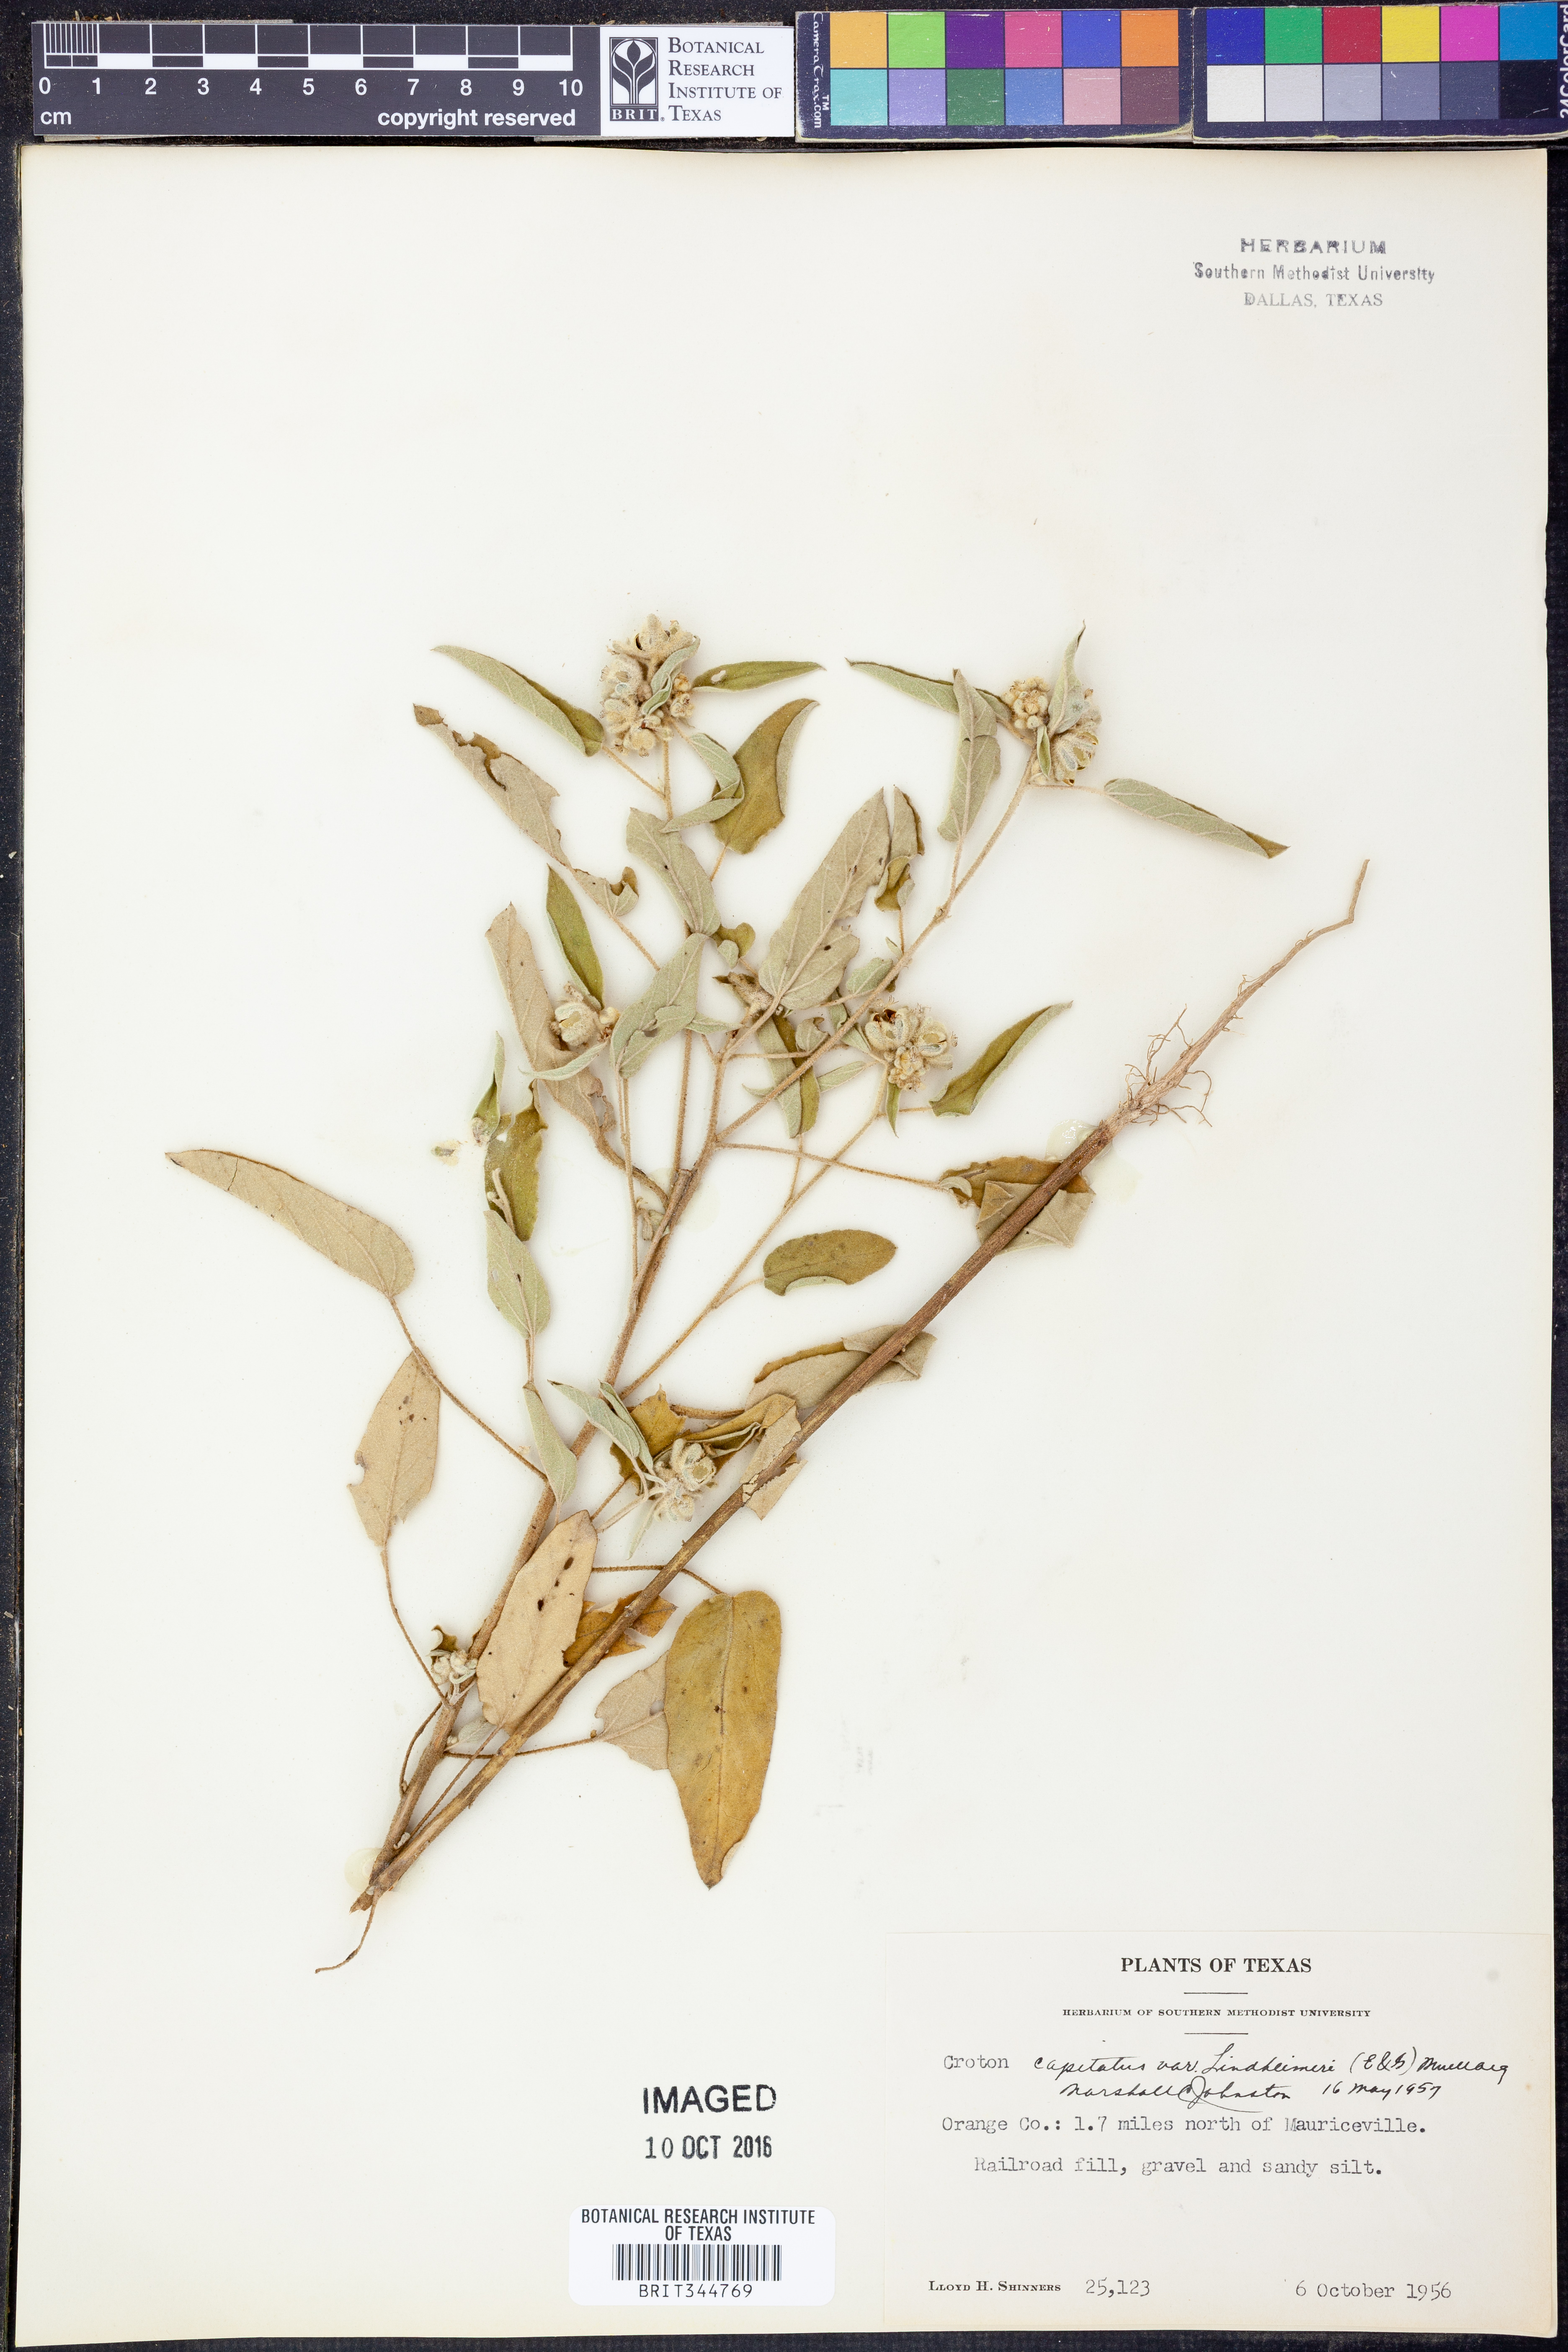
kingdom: Plantae
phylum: Tracheophyta
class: Magnoliopsida
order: Malpighiales
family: Euphorbiaceae
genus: Croton
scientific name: Croton lindheimeri
